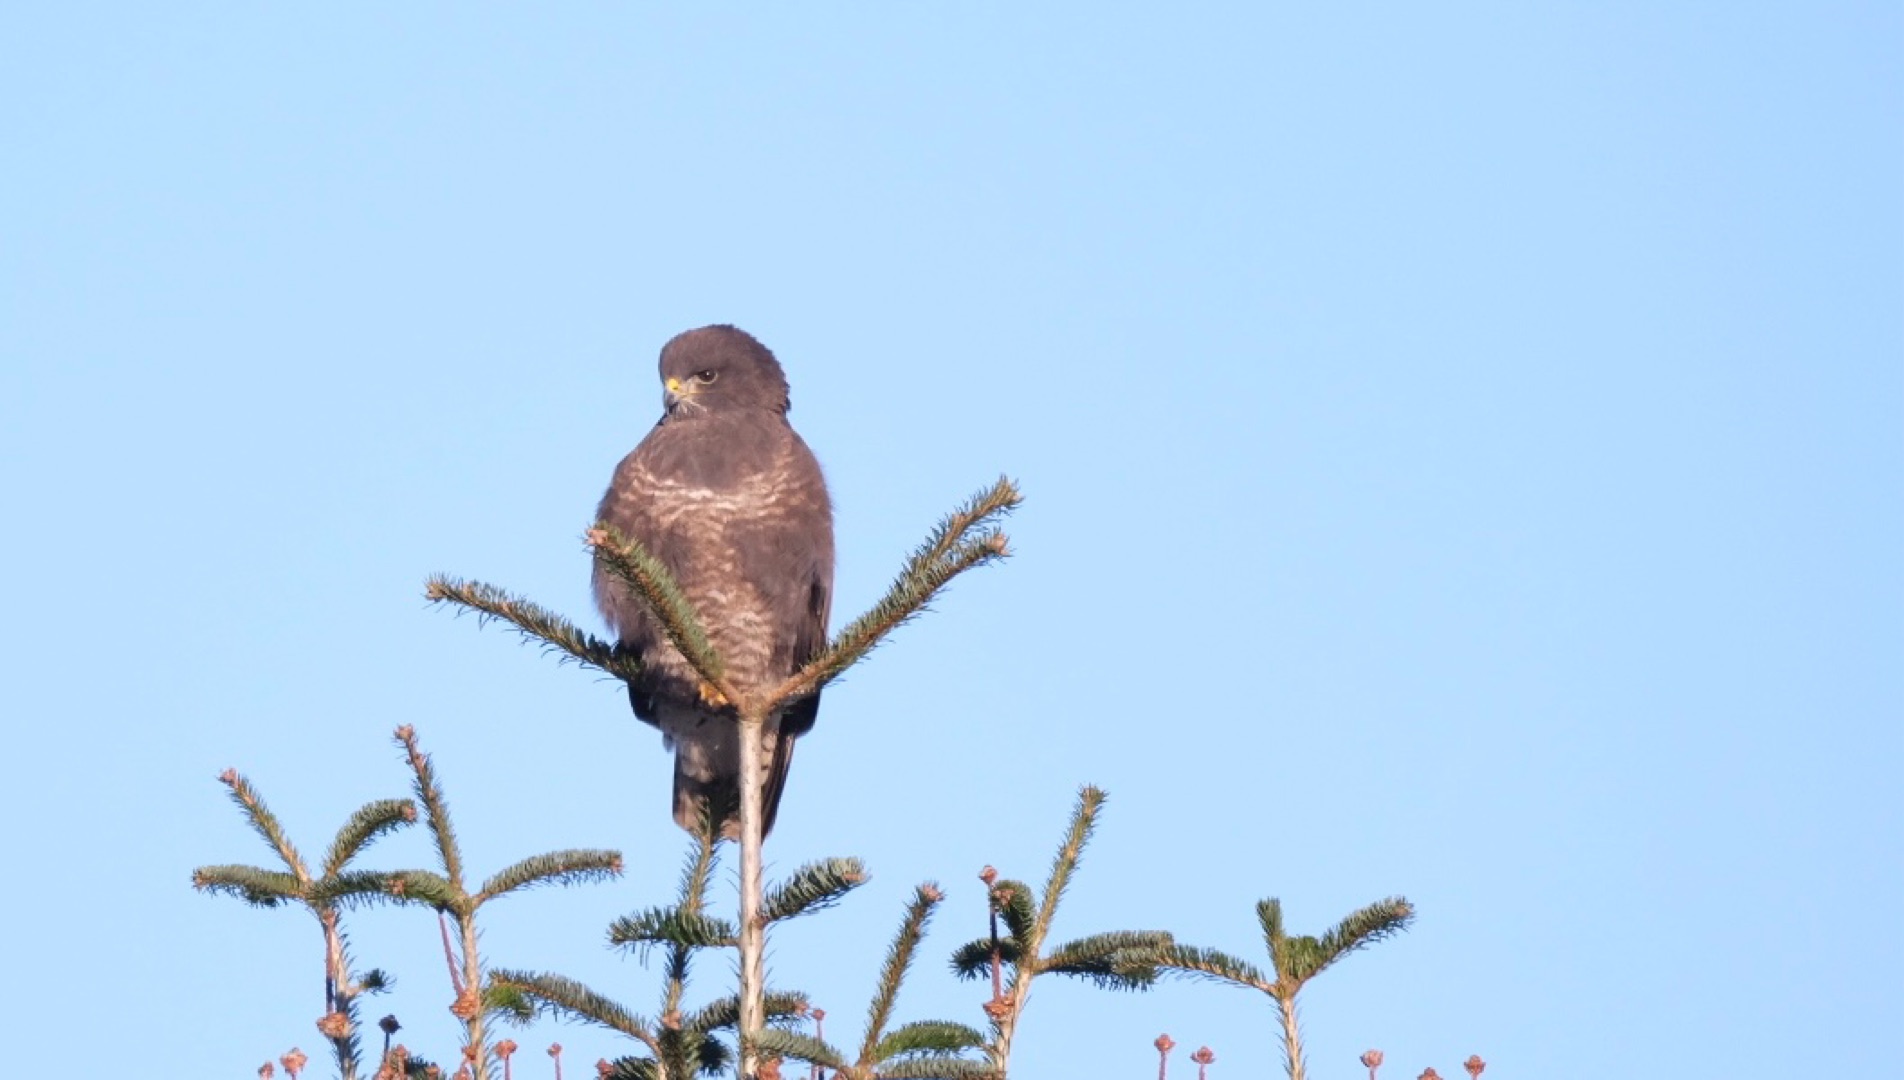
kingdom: Animalia
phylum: Chordata
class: Aves
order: Accipitriformes
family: Accipitridae
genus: Buteo
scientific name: Buteo buteo
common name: Musvåge
